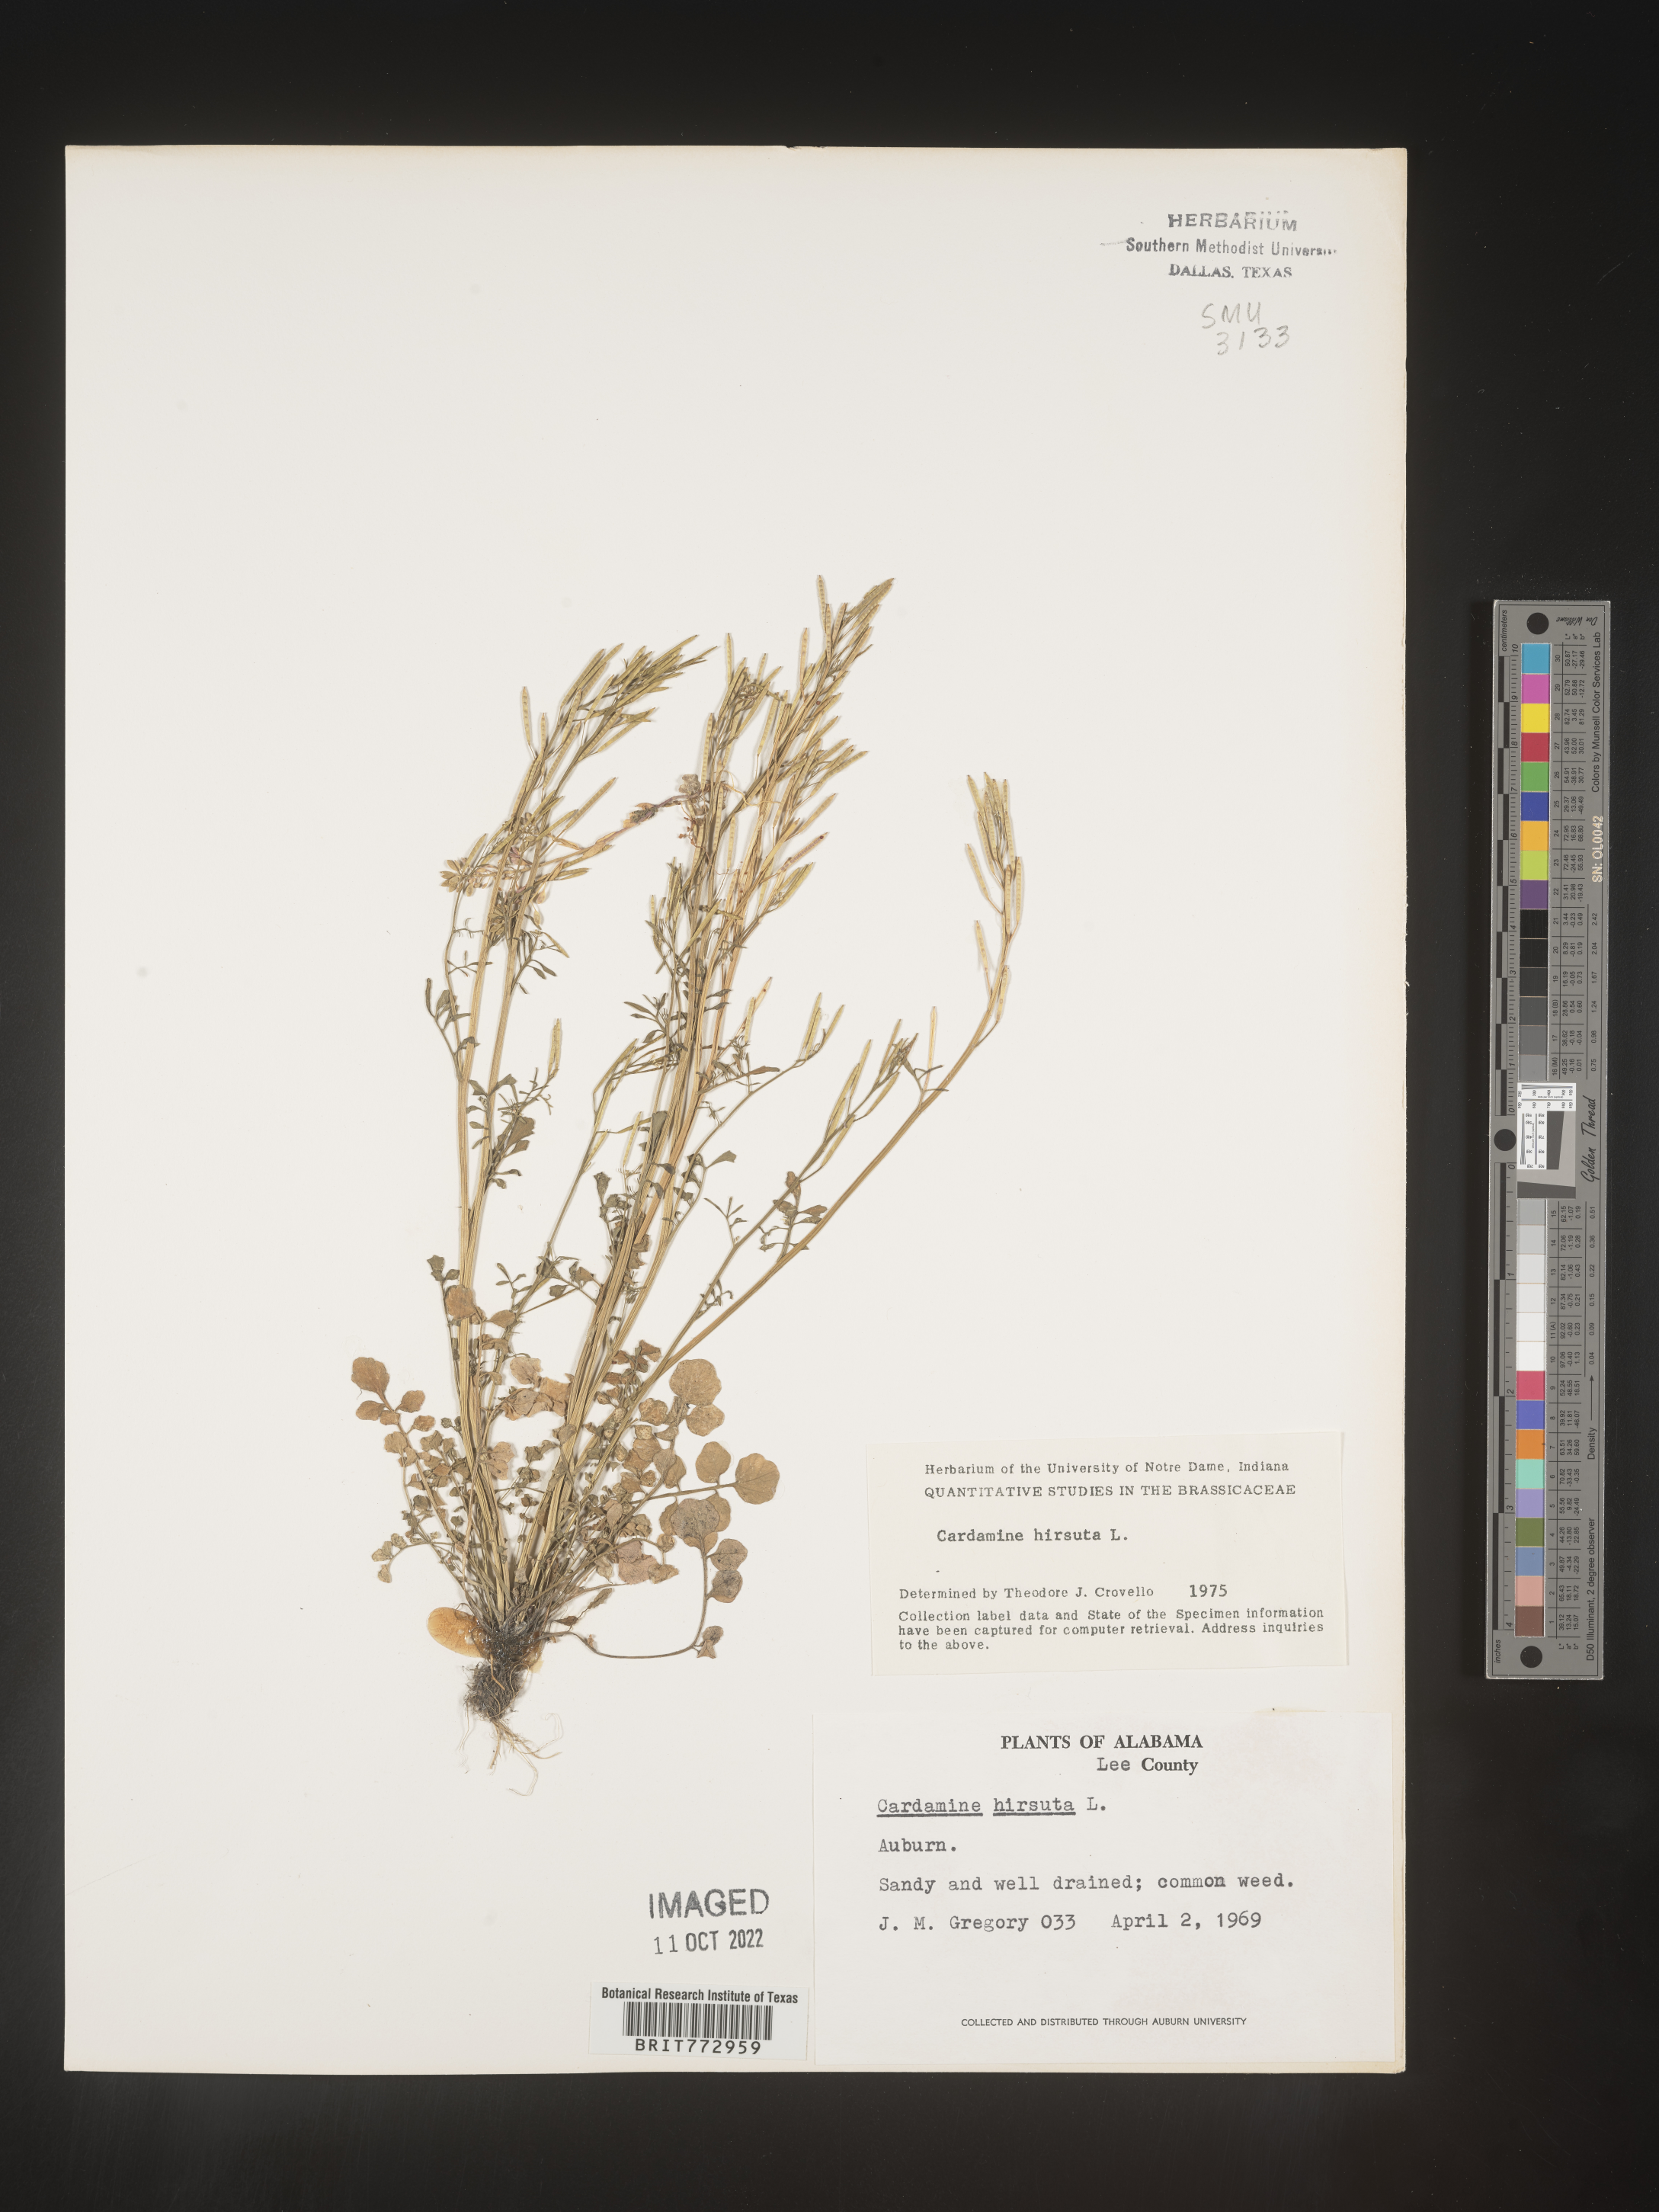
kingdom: Plantae
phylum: Tracheophyta
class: Magnoliopsida
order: Brassicales
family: Brassicaceae
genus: Cardamine
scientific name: Cardamine hirsuta
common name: Hairy bittercress
